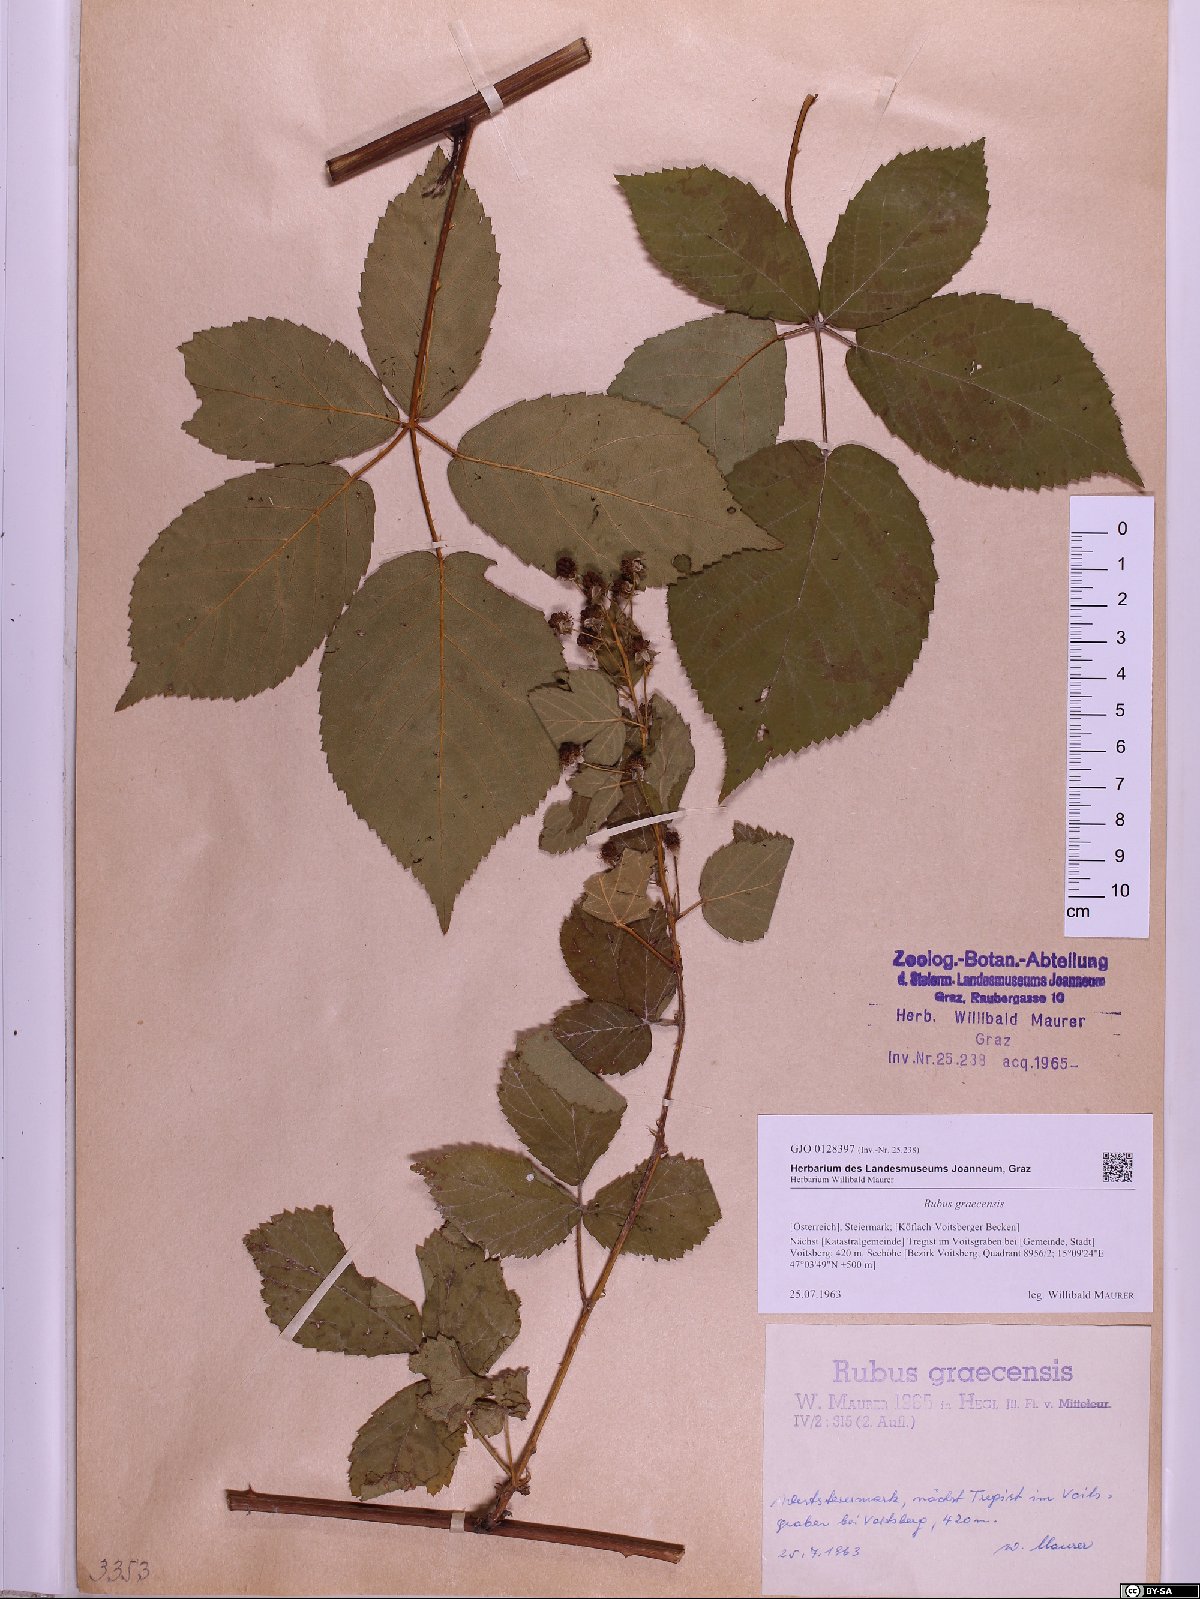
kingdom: Plantae
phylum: Tracheophyta
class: Magnoliopsida
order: Rosales
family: Rosaceae
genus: Rubus
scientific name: Rubus graecensis
